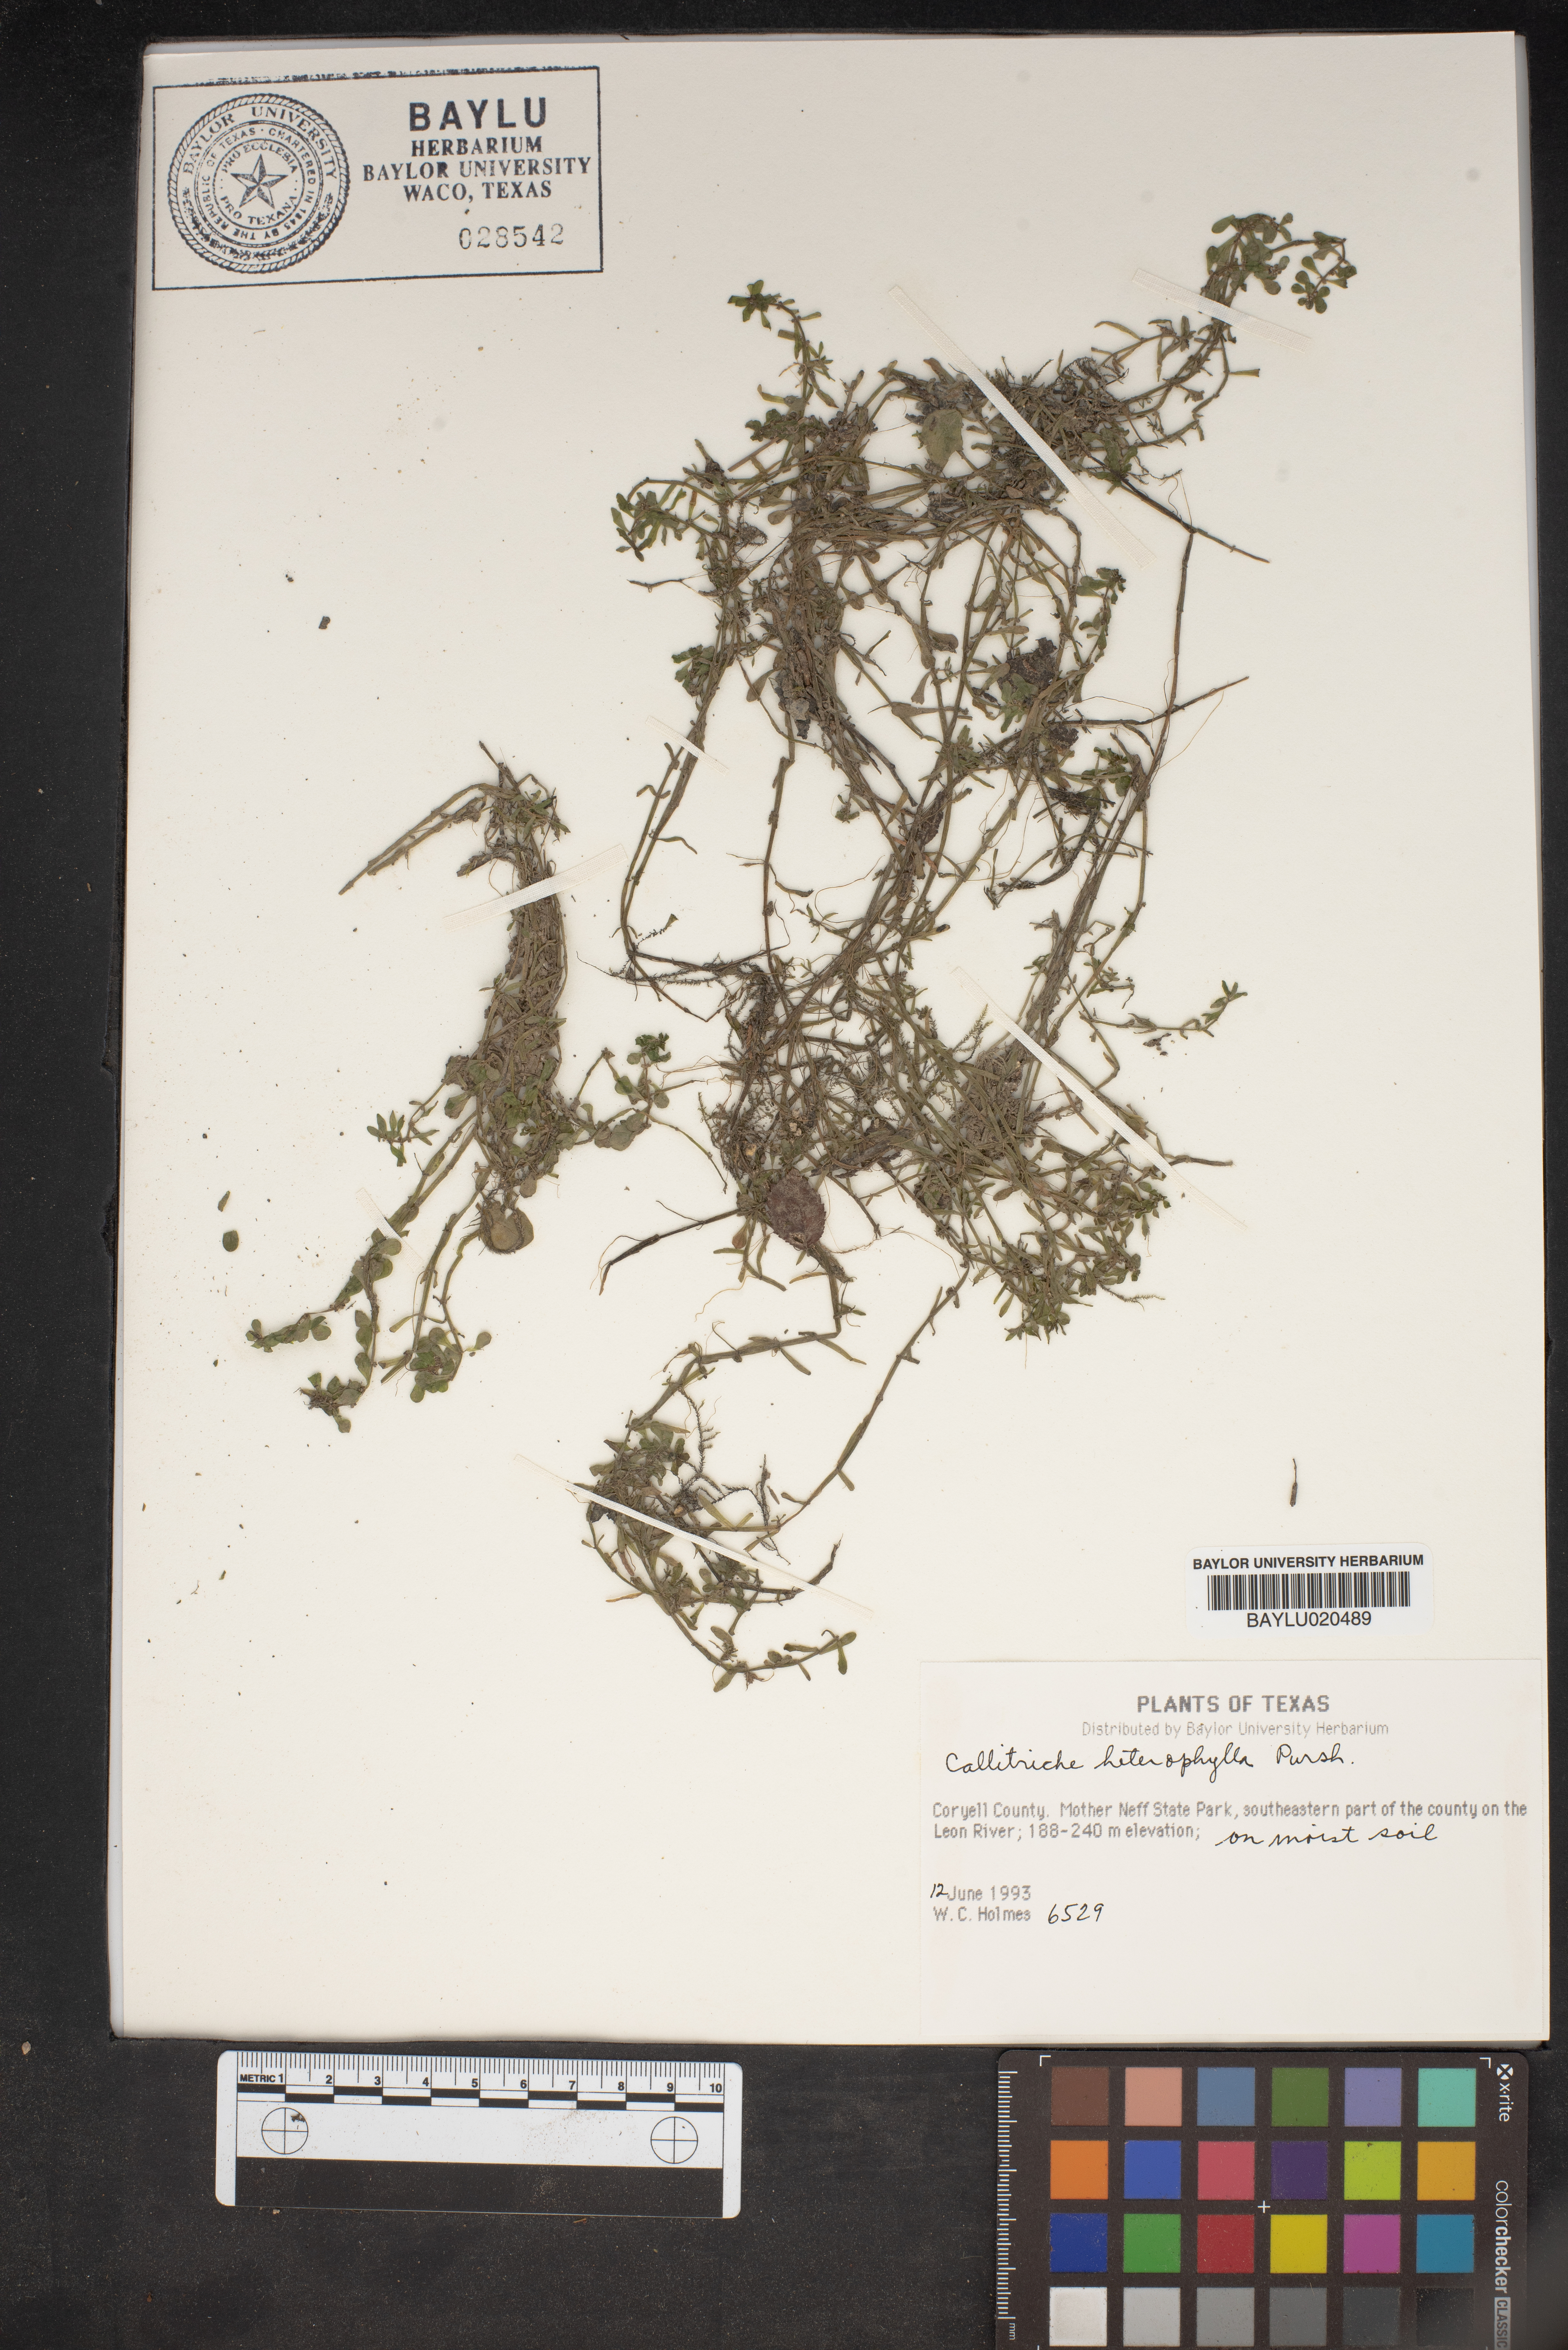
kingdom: Plantae
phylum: Tracheophyta
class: Magnoliopsida
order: Lamiales
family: Plantaginaceae
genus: Callitriche
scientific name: Callitriche heterophylla
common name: Two-headed water-starwort
